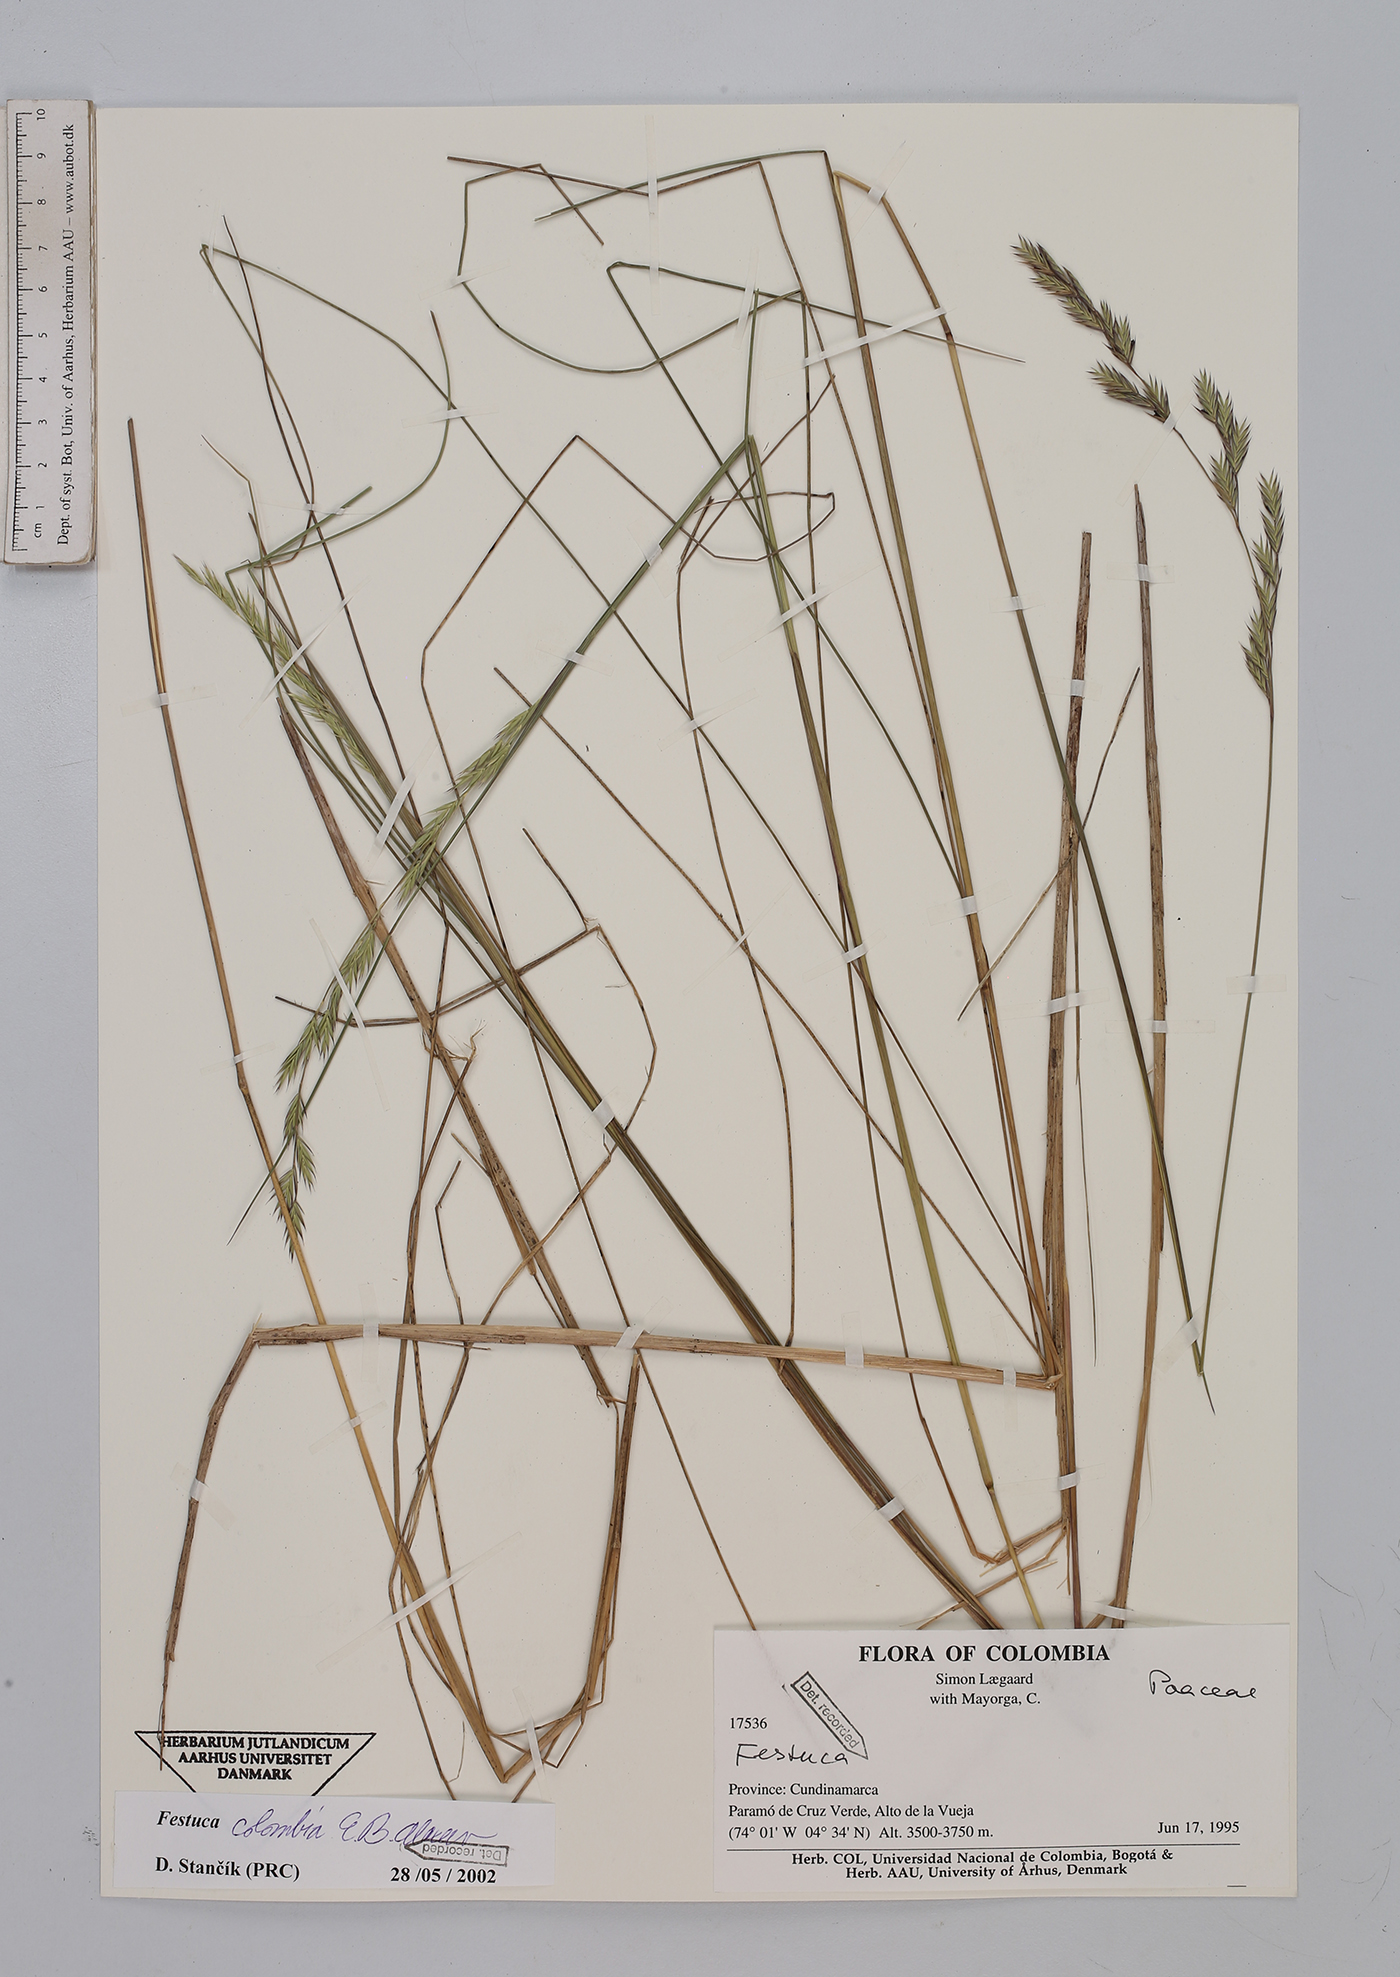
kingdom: Plantae
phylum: Tracheophyta
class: Liliopsida
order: Poales
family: Poaceae
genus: Festuca
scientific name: Festuca colombiana
